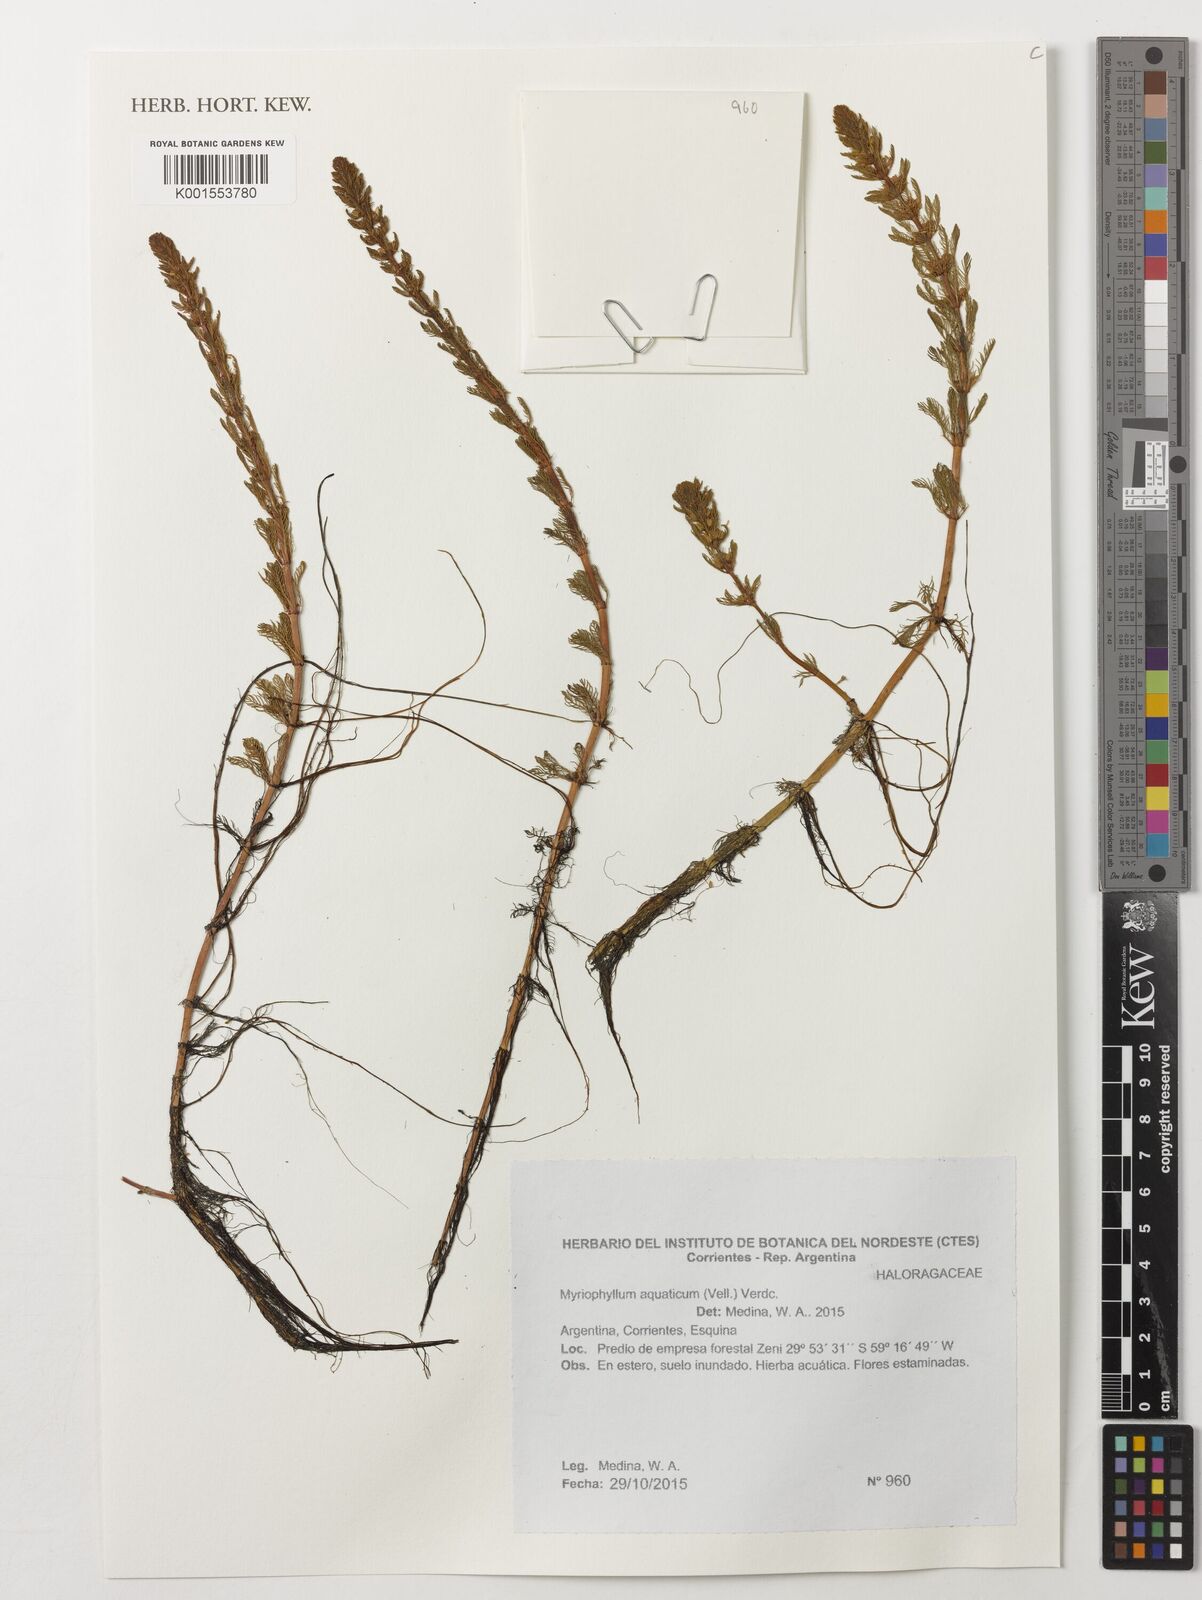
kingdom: Plantae
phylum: Tracheophyta
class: Magnoliopsida
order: Saxifragales
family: Haloragaceae
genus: Myriophyllum
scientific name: Myriophyllum aquaticum
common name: Parrot's feather
